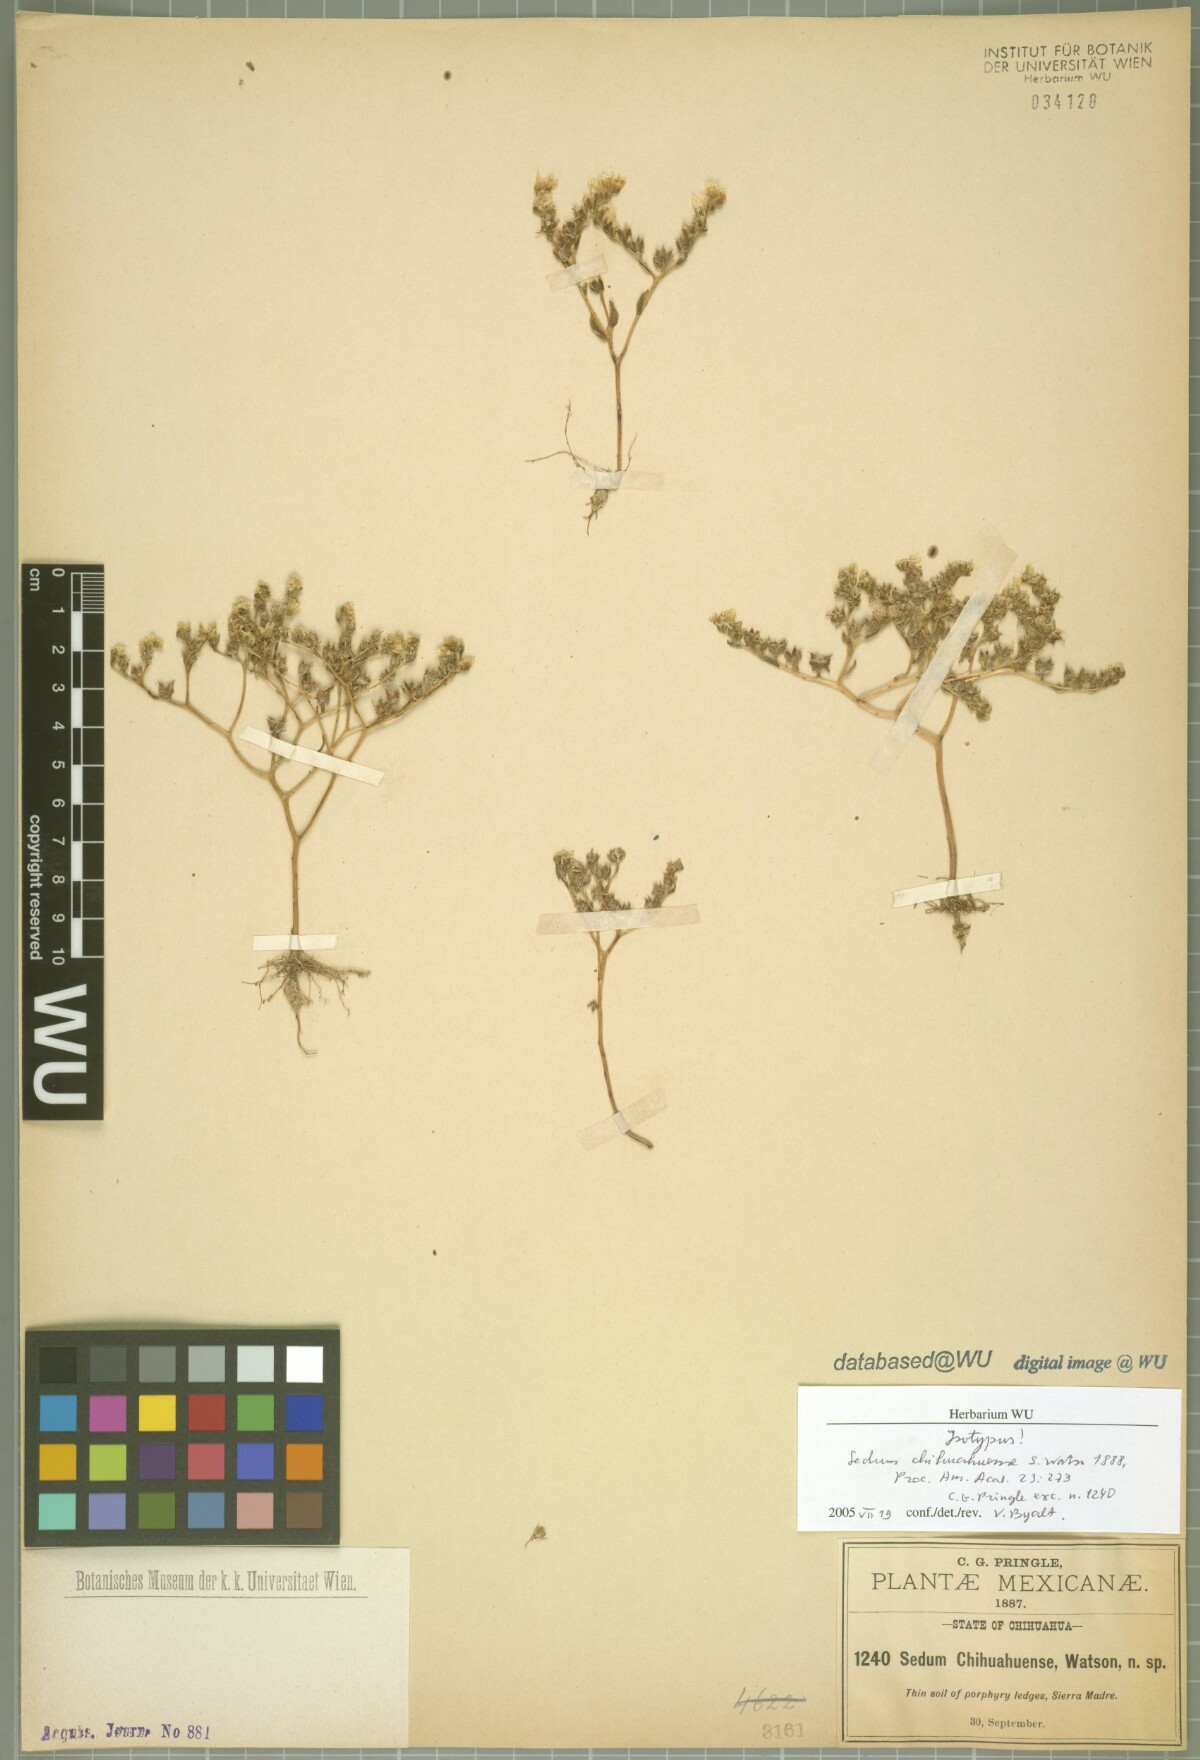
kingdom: Plantae
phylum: Tracheophyta
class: Magnoliopsida
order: Saxifragales
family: Crassulaceae
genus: Sedum
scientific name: Sedum chihuahuense
